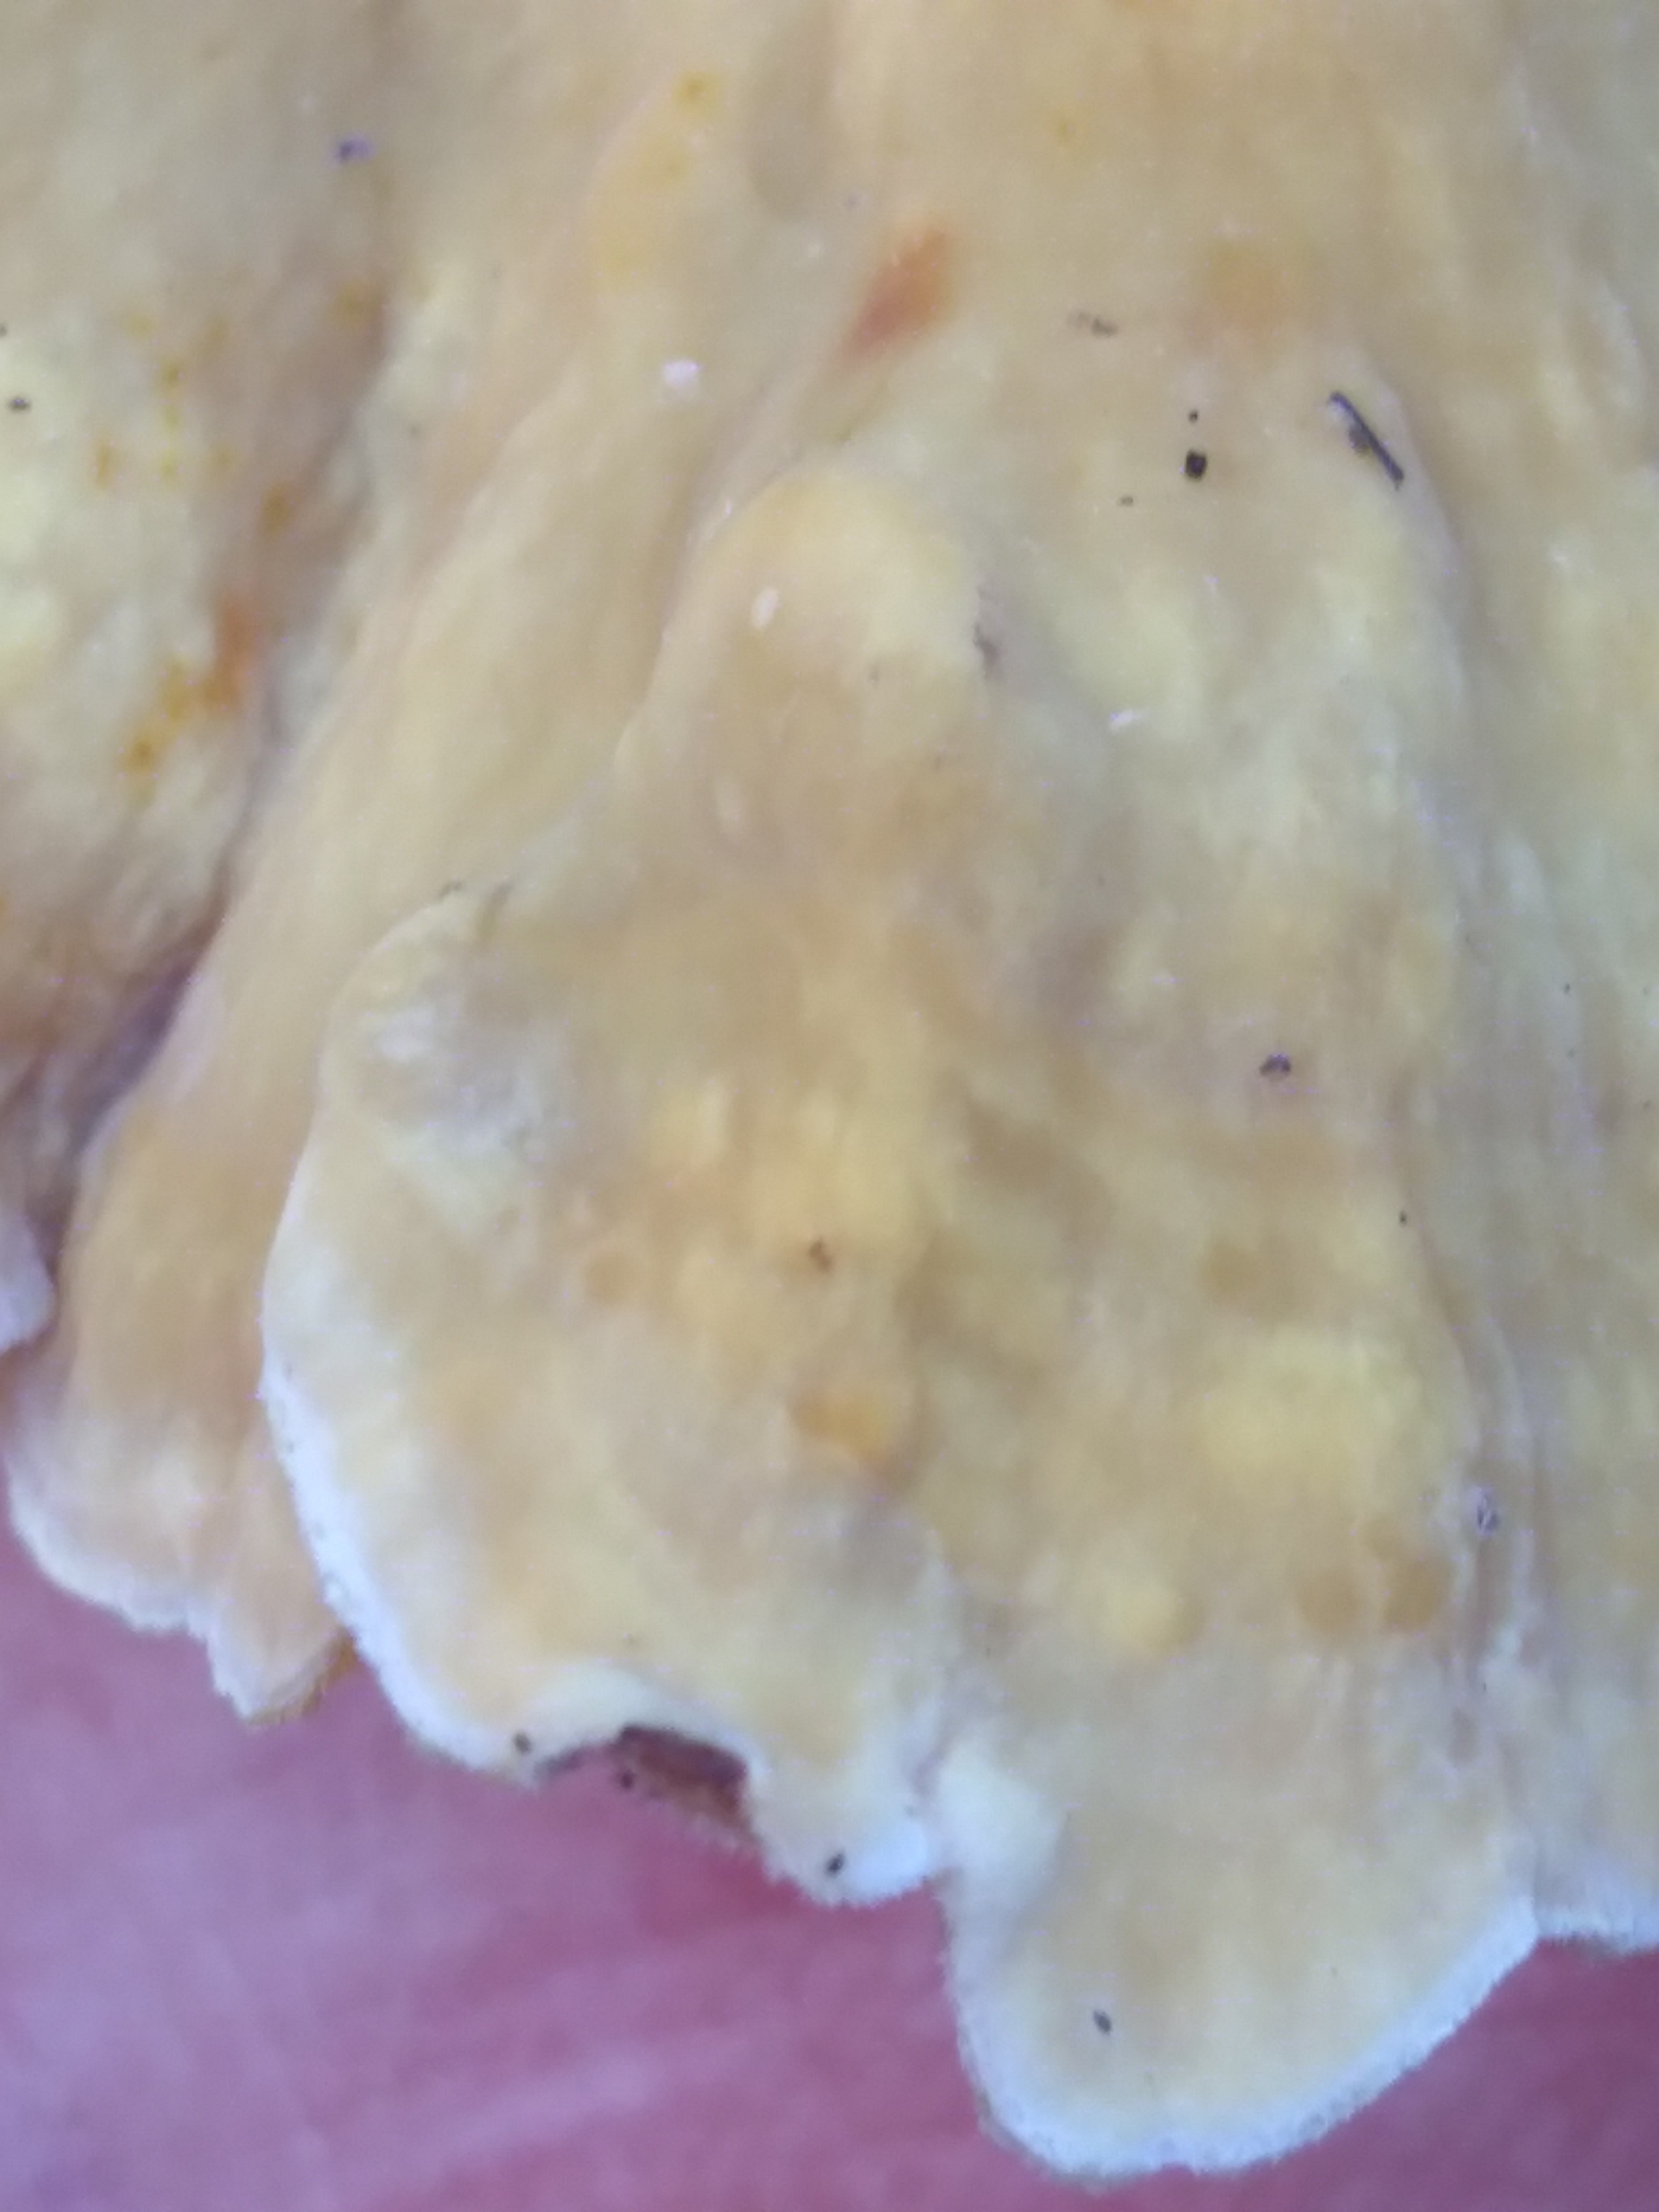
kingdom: Fungi
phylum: Basidiomycota
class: Agaricomycetes
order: Russulales
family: Stereaceae
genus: Stereum
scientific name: Stereum subtomentosum
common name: smuk lædersvamp
